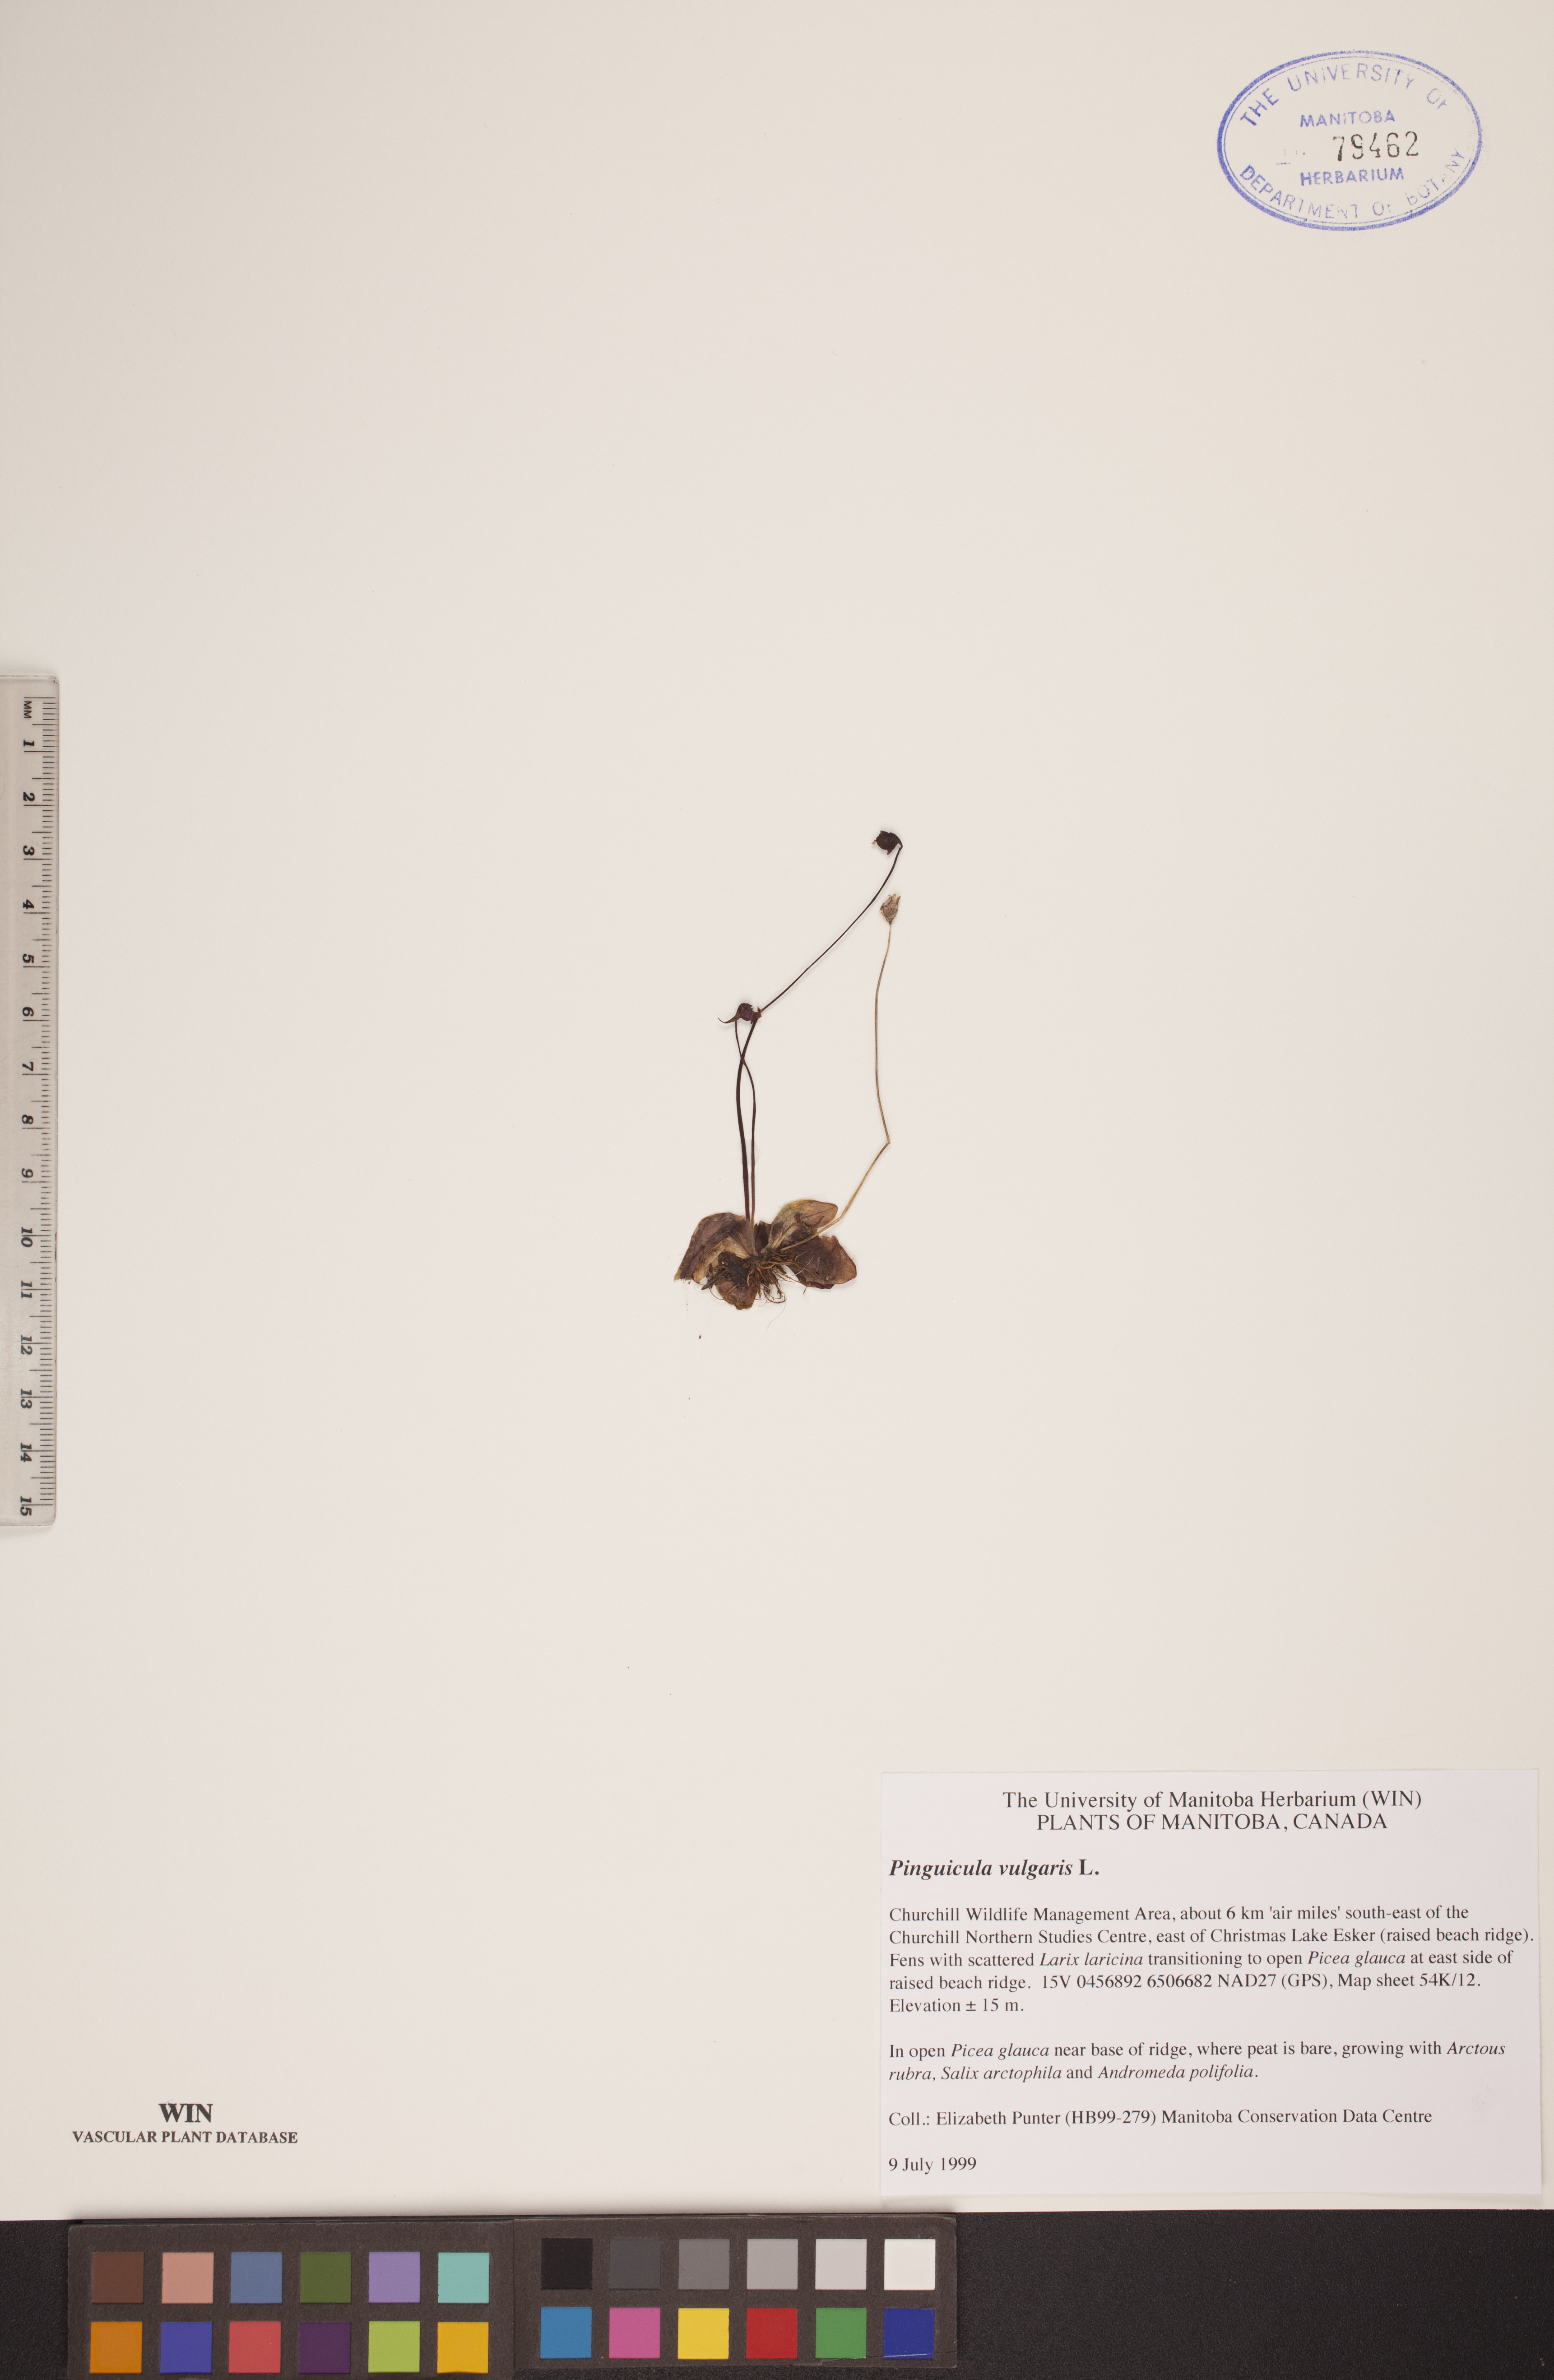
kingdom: Plantae
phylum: Tracheophyta
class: Magnoliopsida
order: Lamiales
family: Lentibulariaceae
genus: Pinguicula
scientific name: Pinguicula vulgaris
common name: Common butterwort
